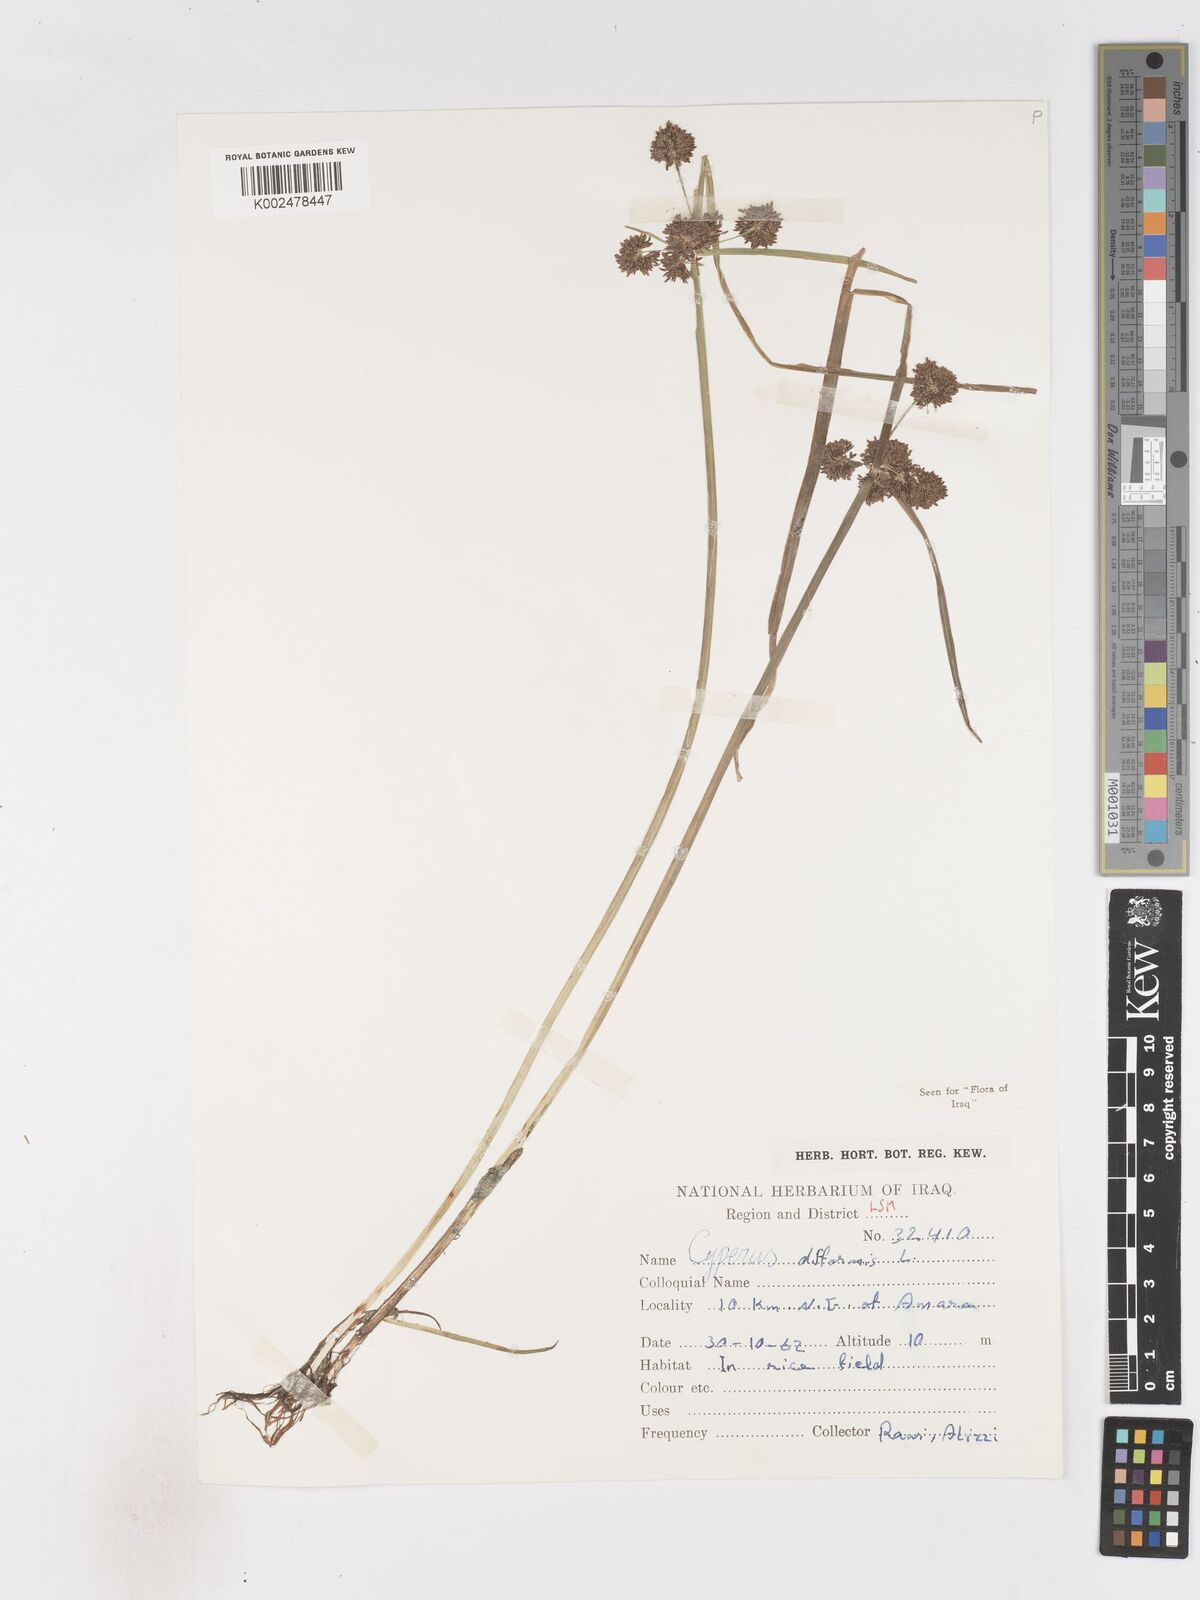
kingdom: Plantae
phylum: Tracheophyta
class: Liliopsida
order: Poales
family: Cyperaceae
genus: Cyperus
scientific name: Cyperus difformis
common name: Variable flatsedge
